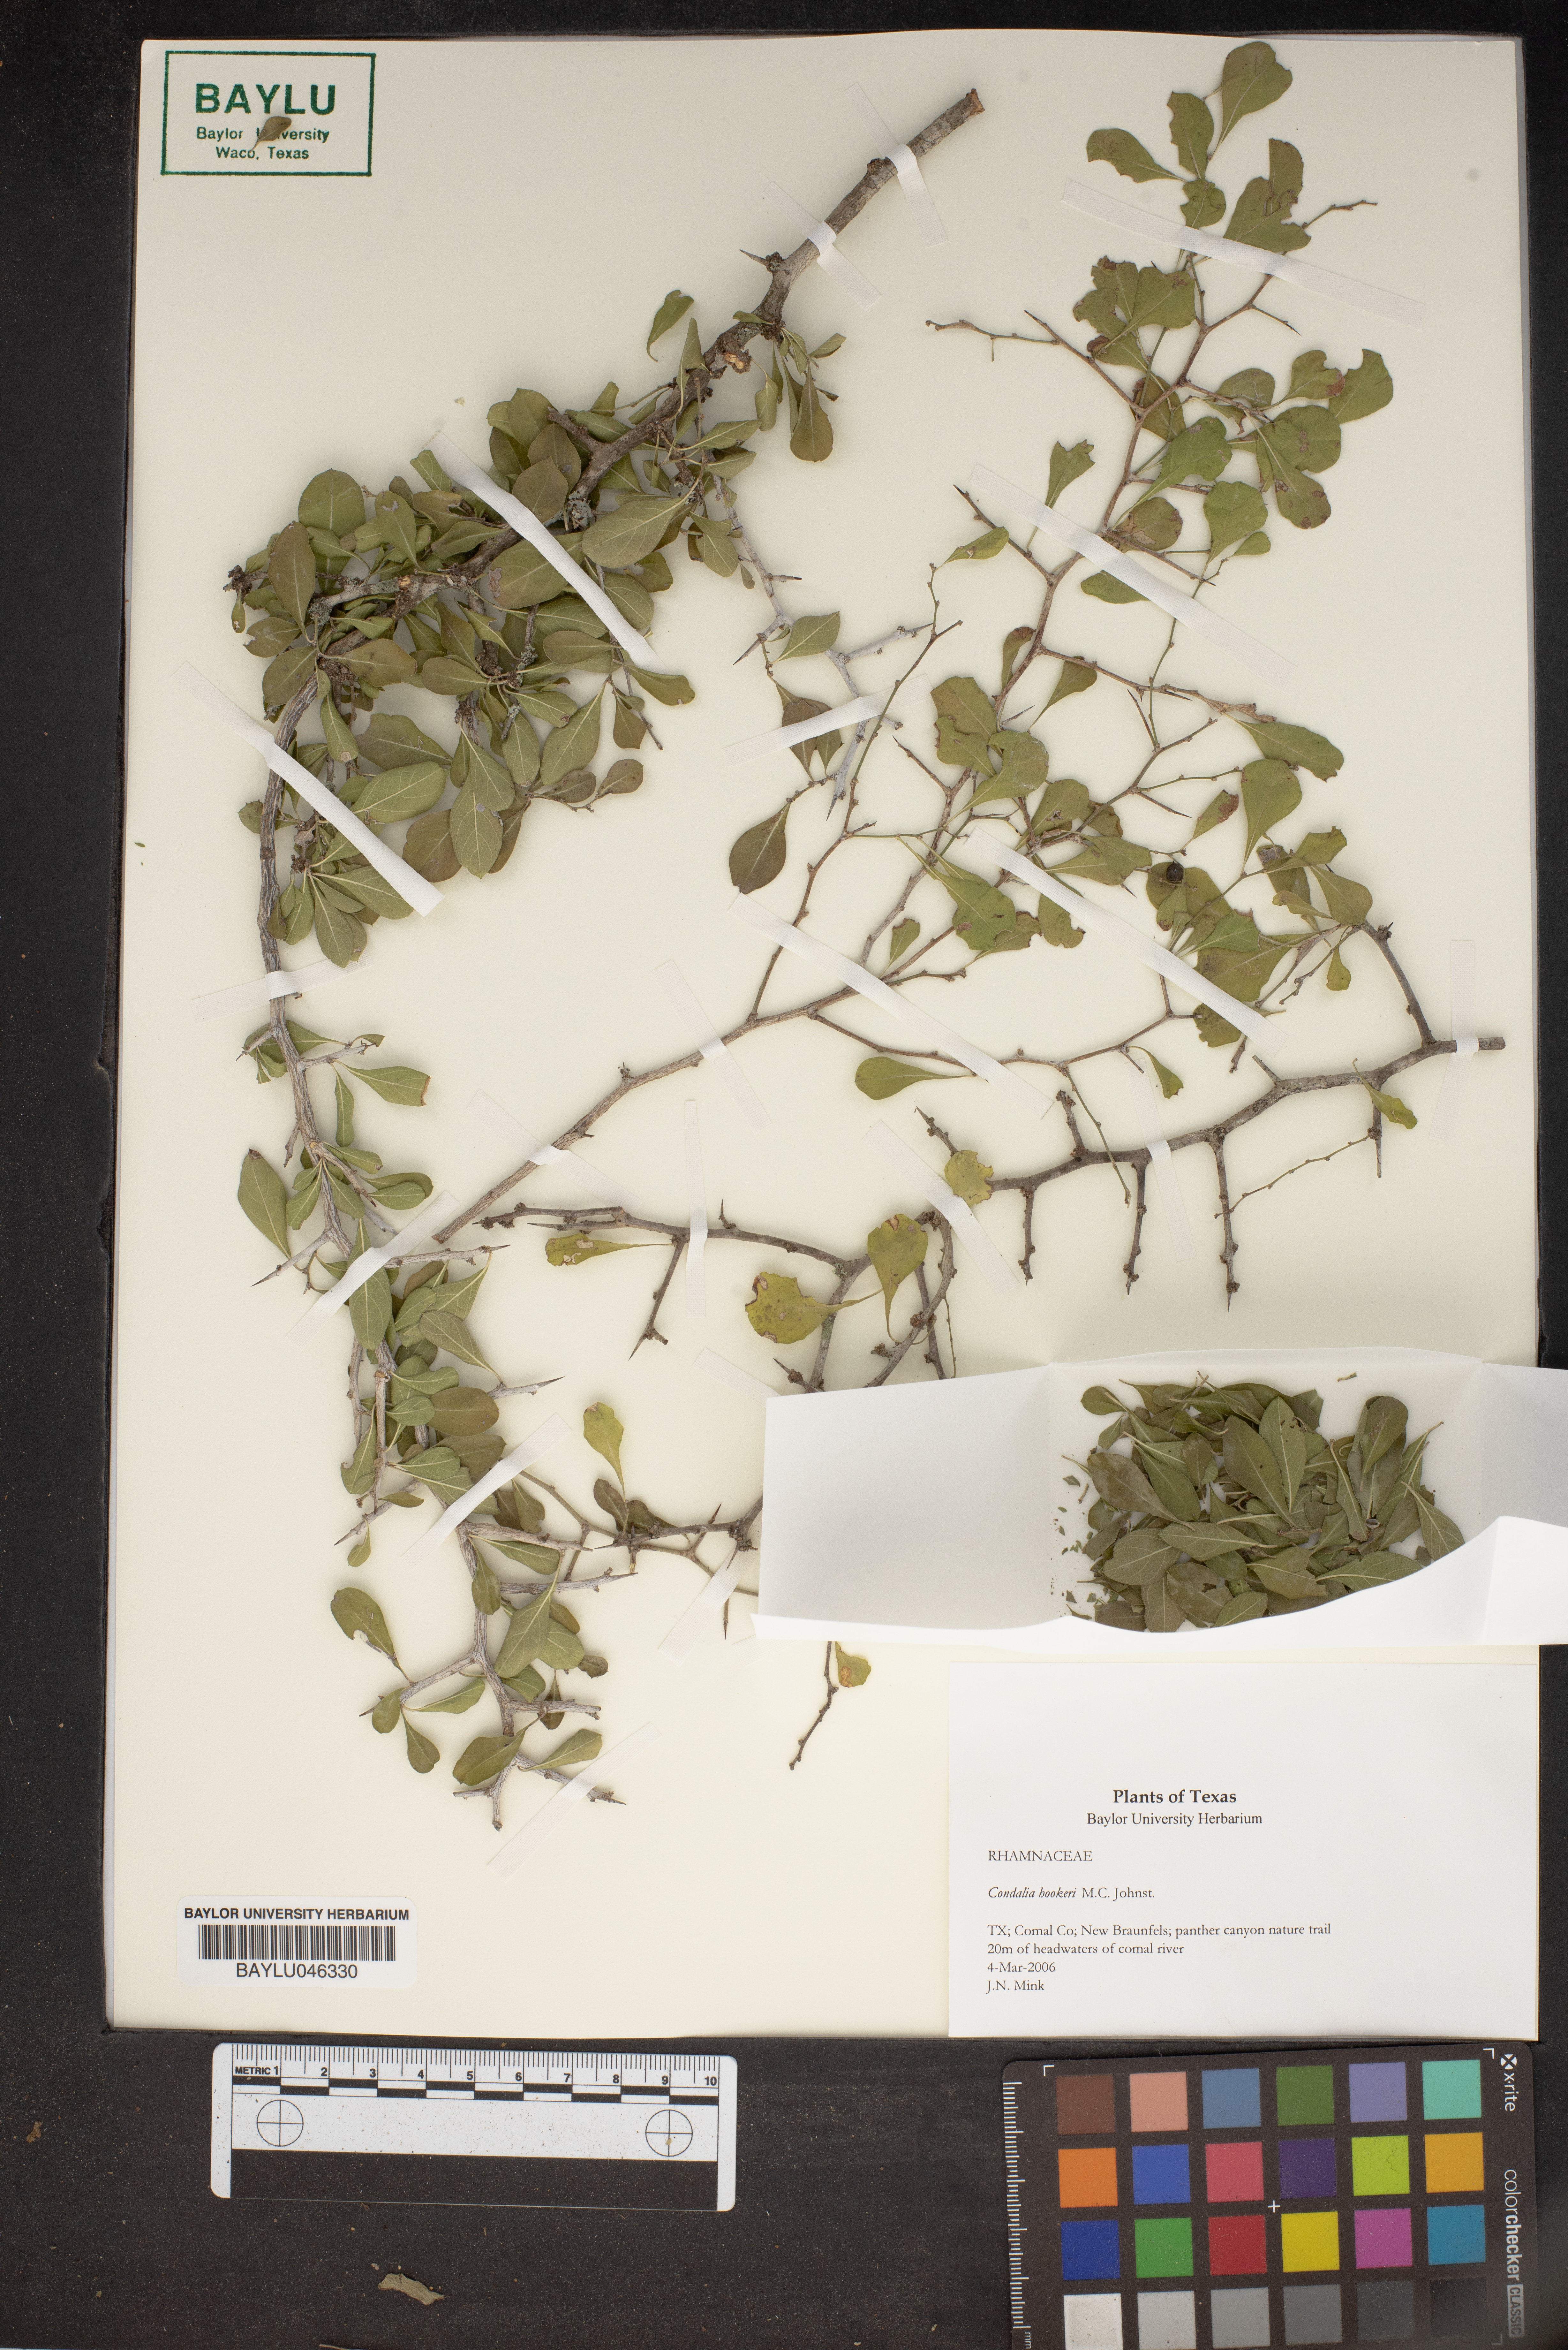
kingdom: Plantae
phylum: Tracheophyta
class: Magnoliopsida
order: Rosales
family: Rhamnaceae
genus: Condalia
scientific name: Condalia hookeri
